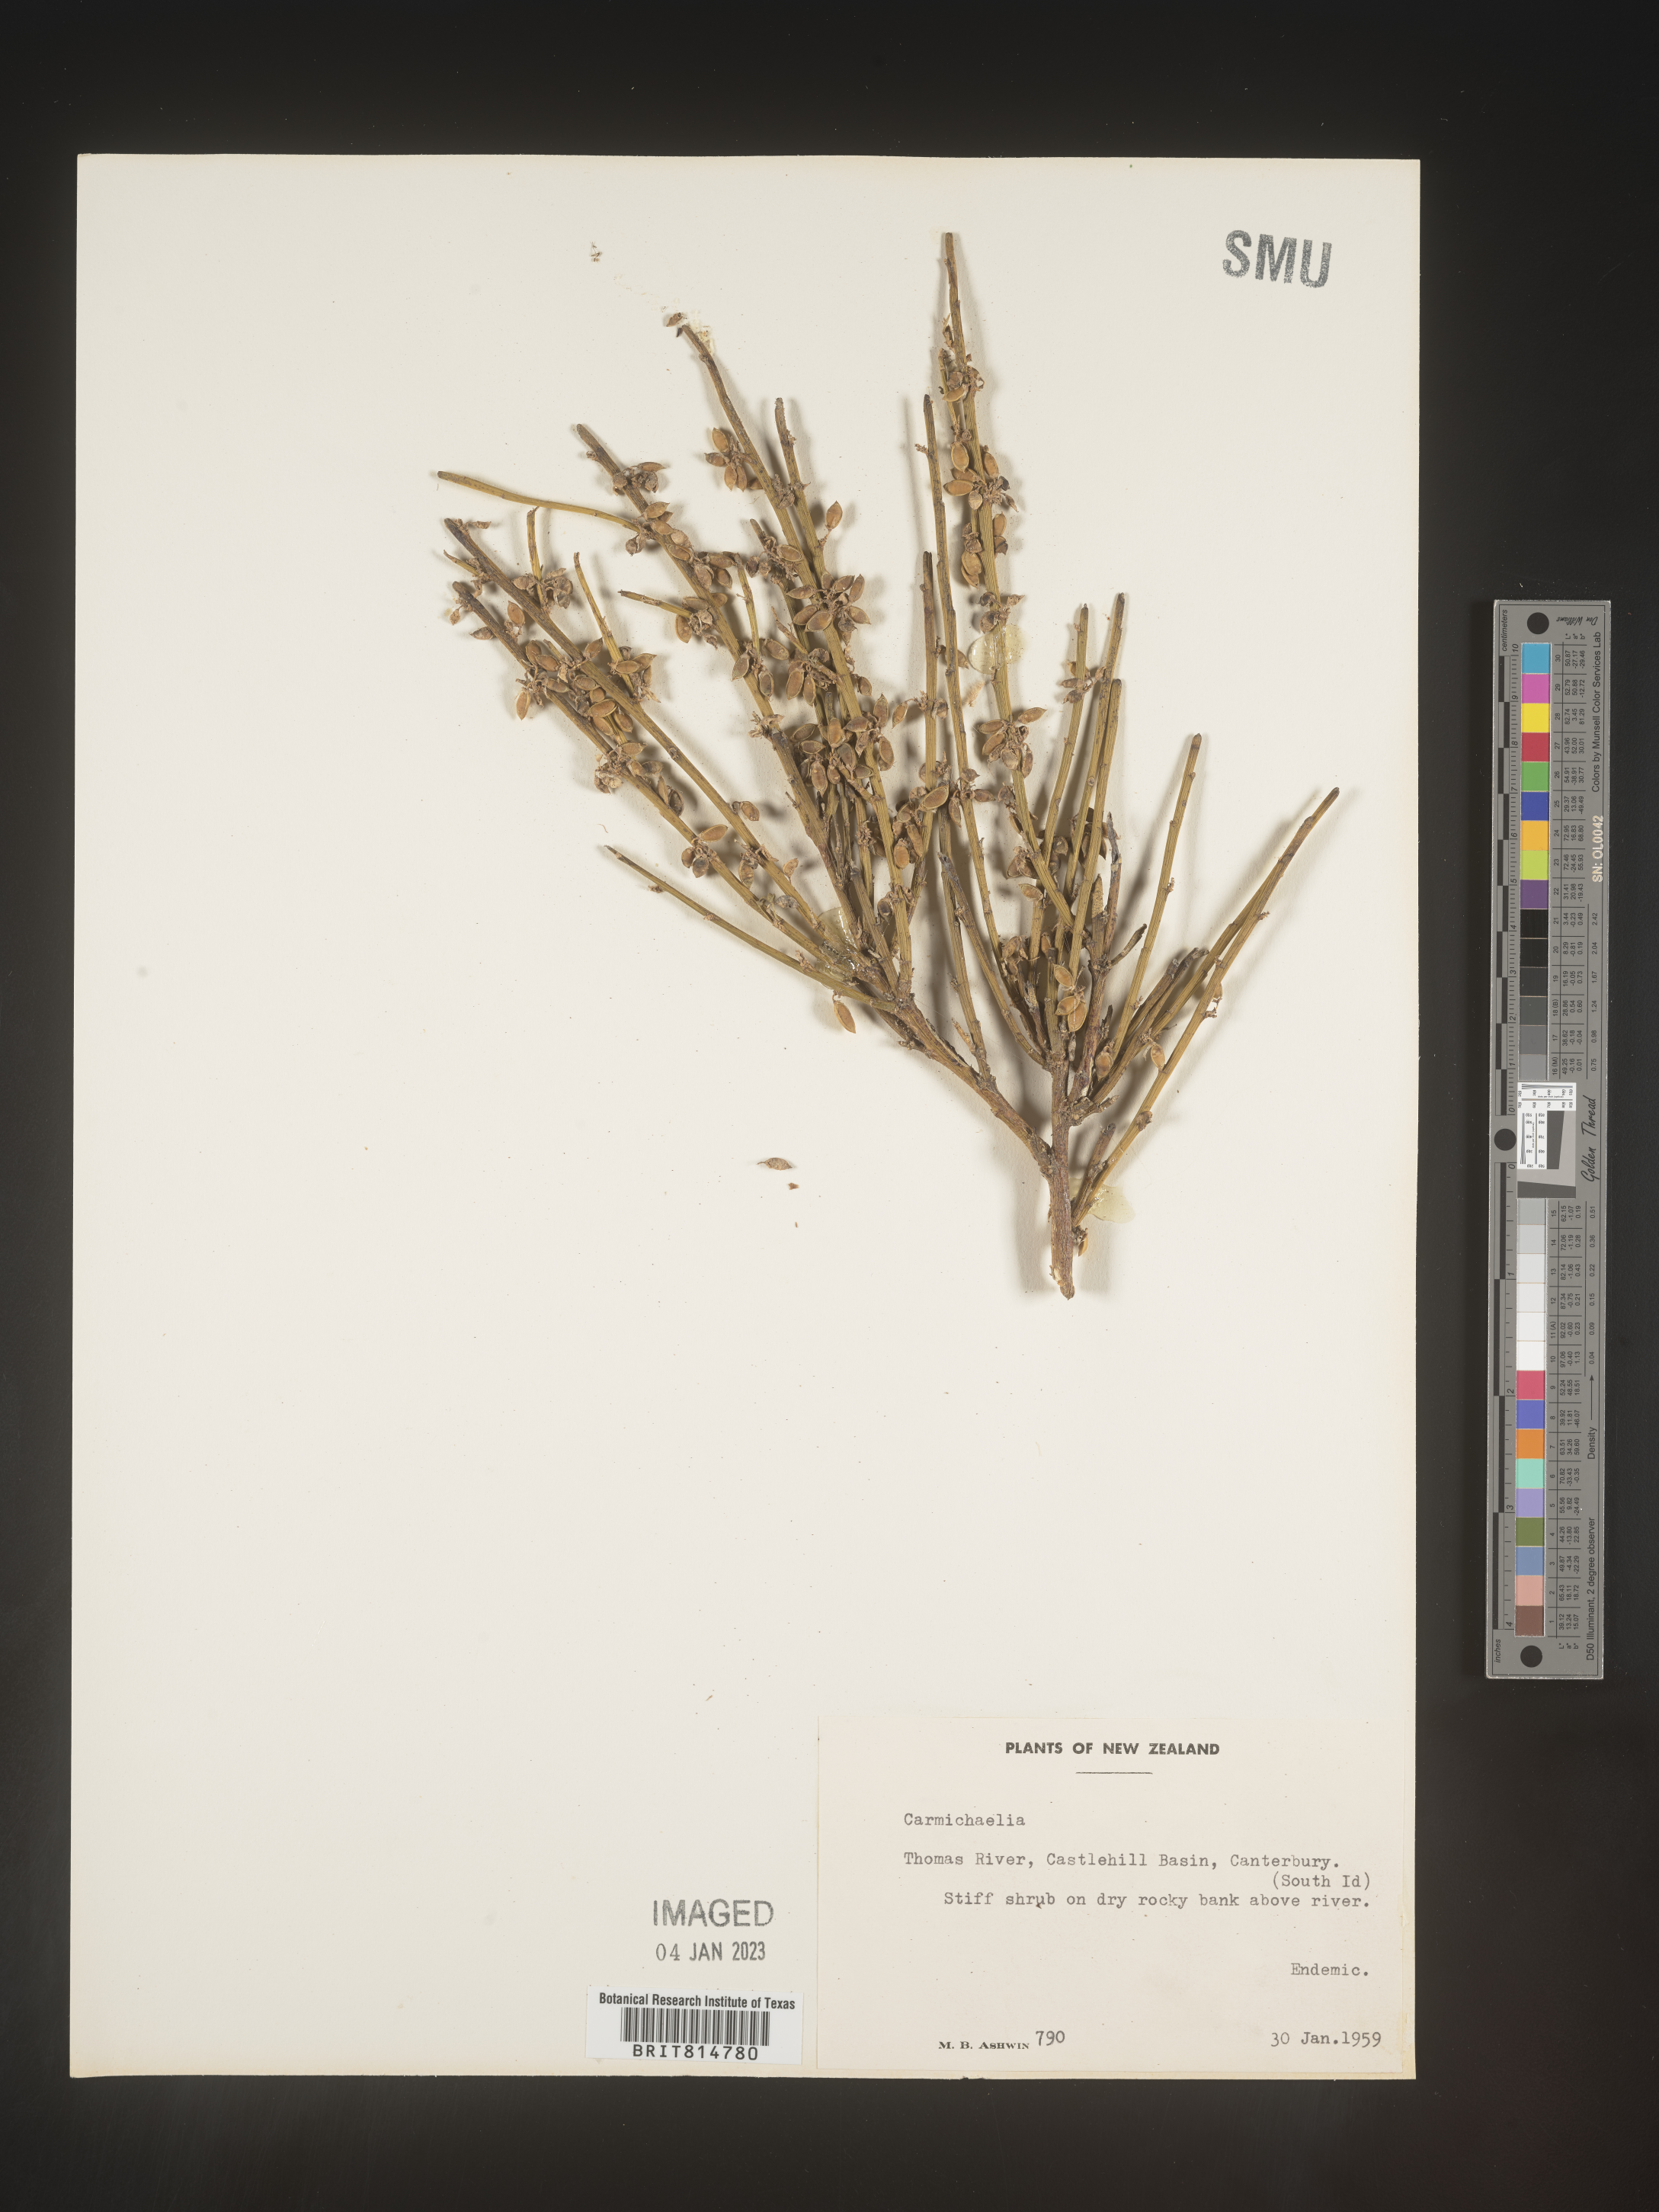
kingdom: Plantae
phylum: Tracheophyta
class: Magnoliopsida
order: Fabales
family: Fabaceae
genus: Carmichaelia
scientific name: Carmichaelia
